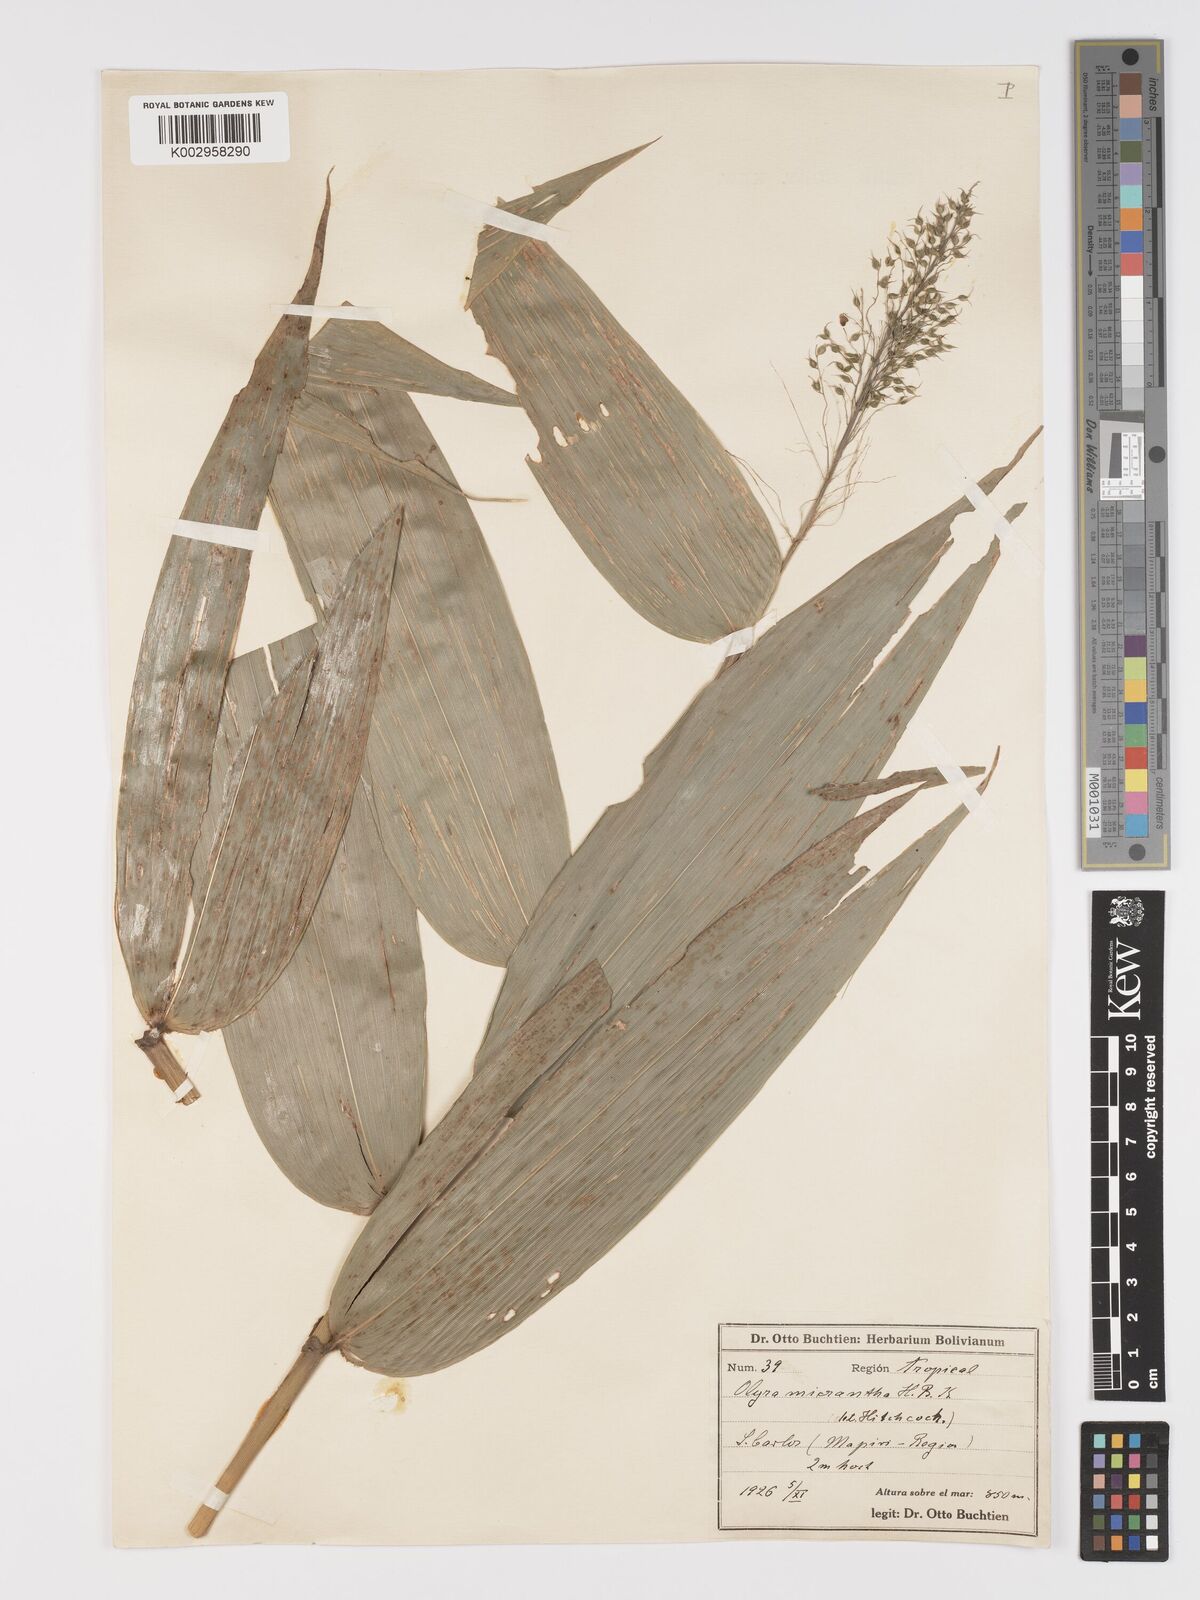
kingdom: Plantae
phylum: Tracheophyta
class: Liliopsida
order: Poales
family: Poaceae
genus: Taquara
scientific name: Taquara micrantha
